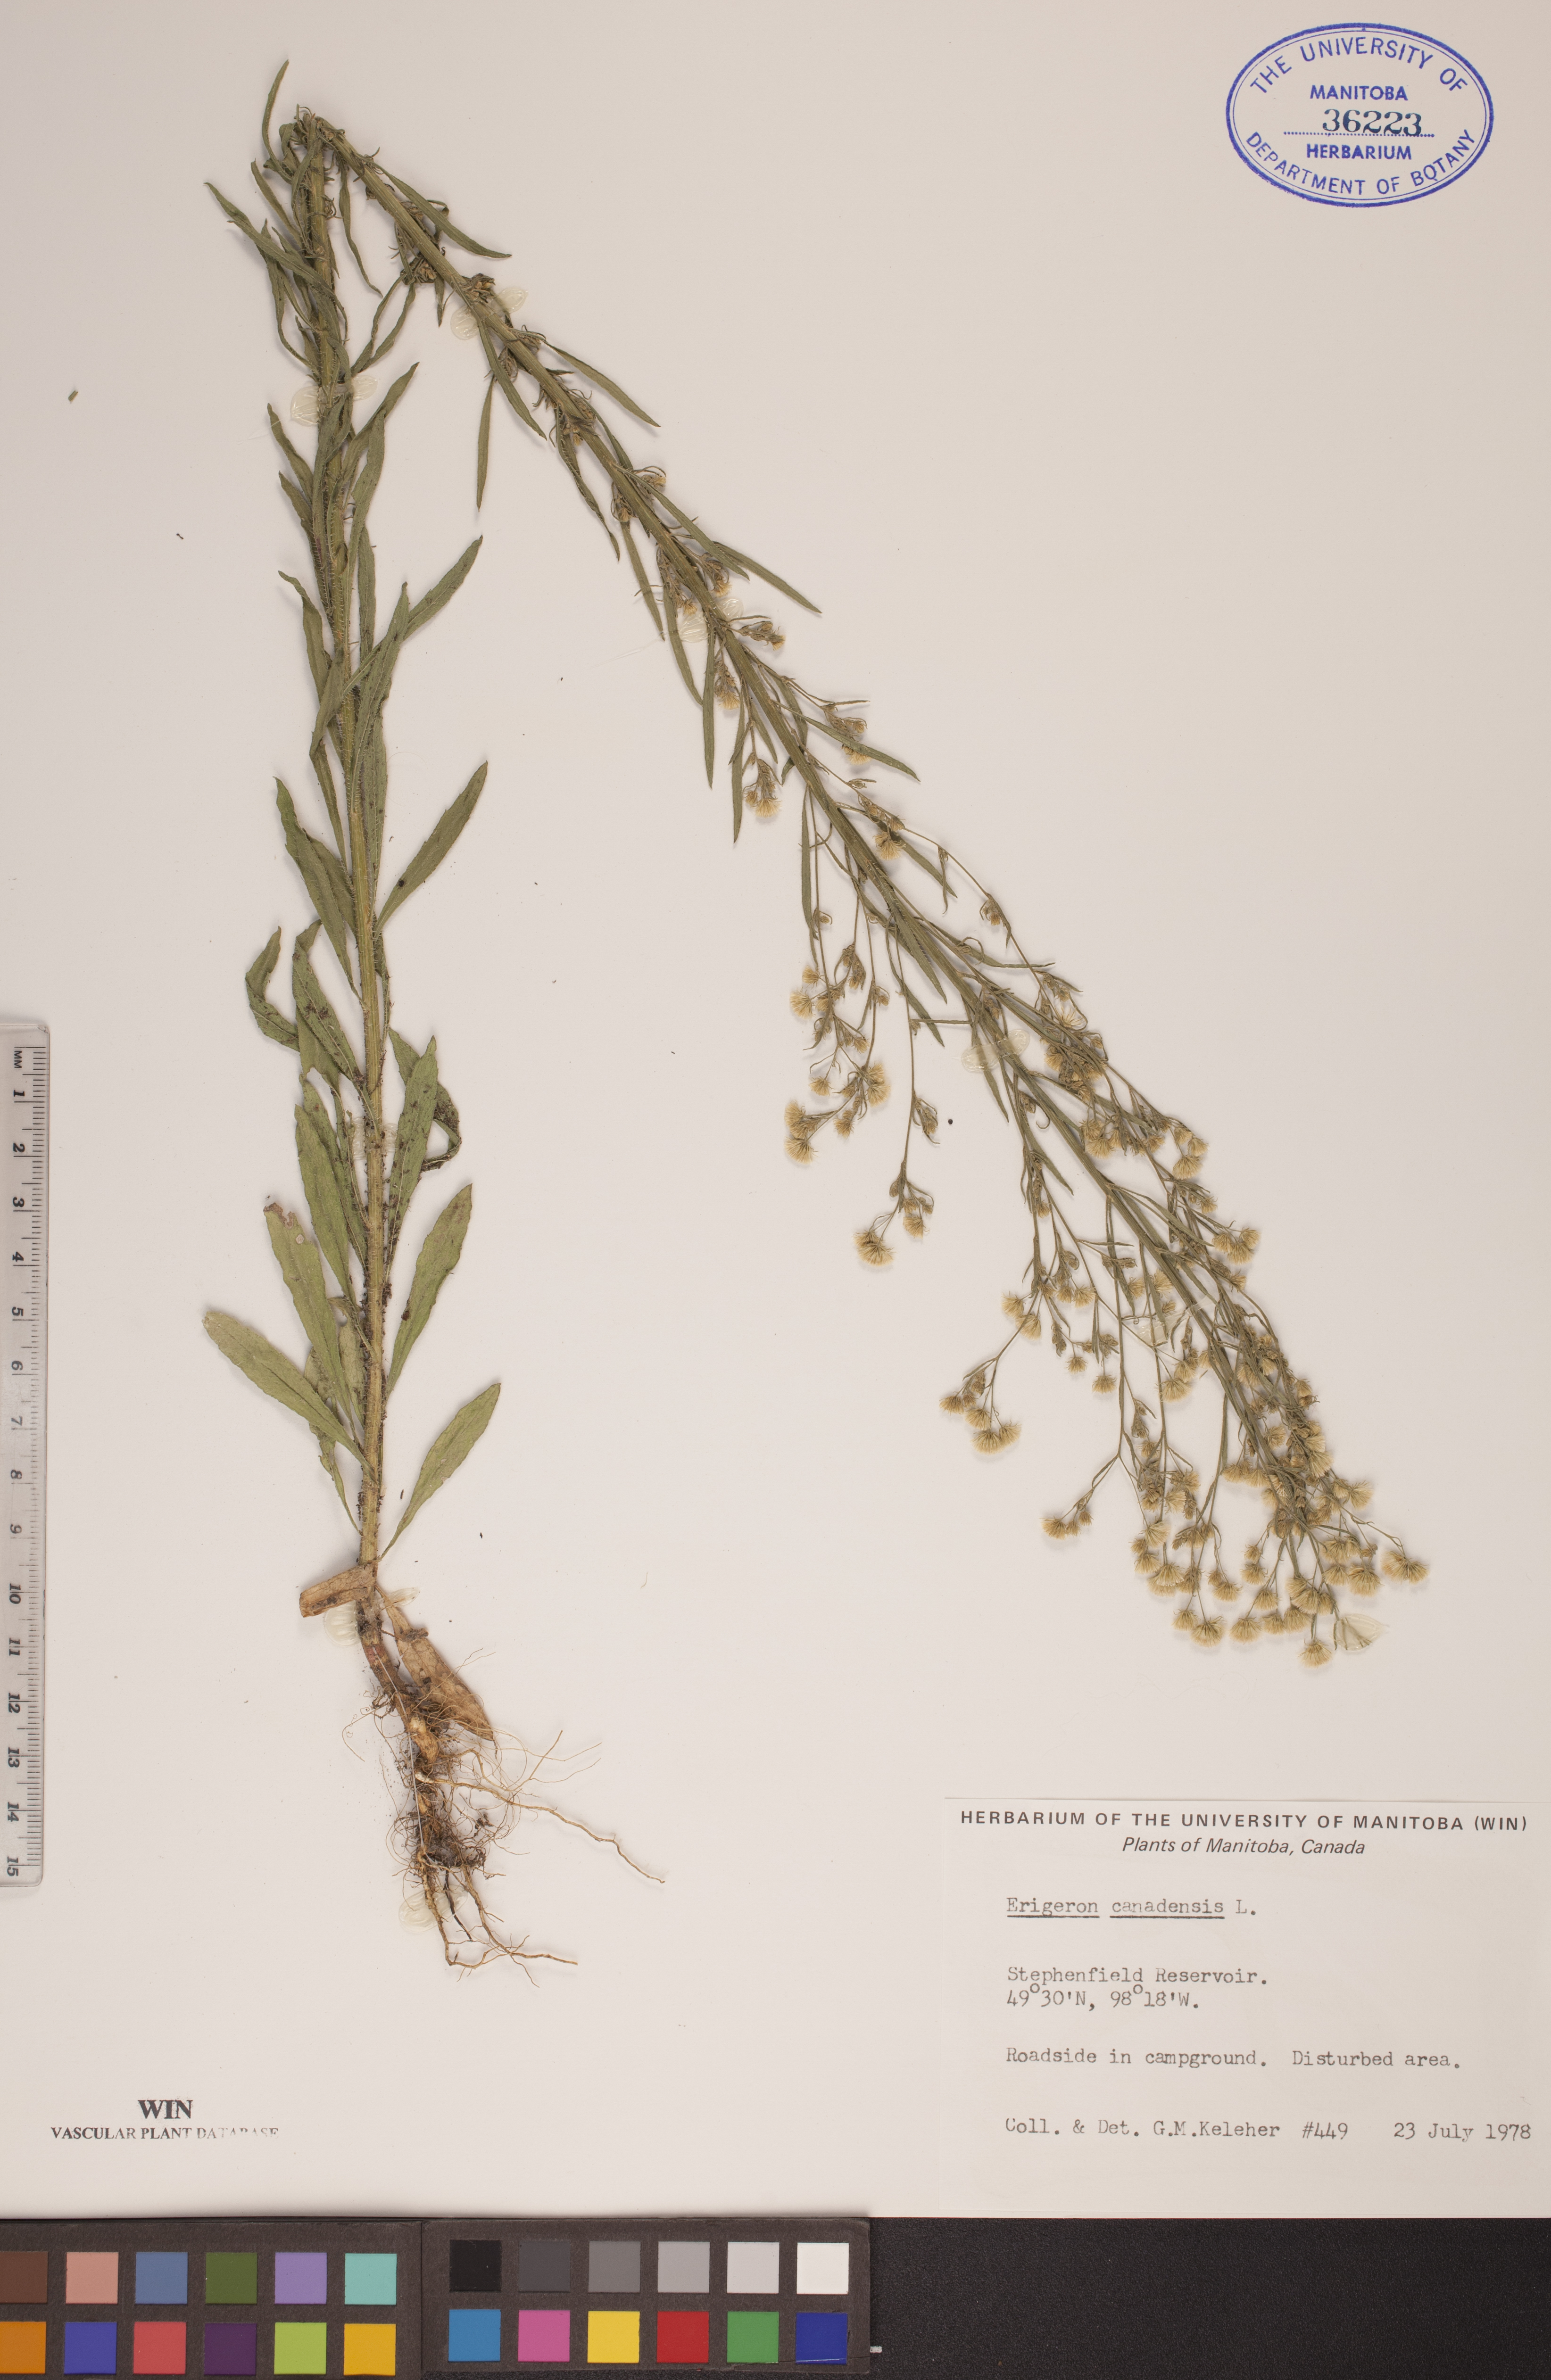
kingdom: Plantae
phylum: Tracheophyta
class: Magnoliopsida
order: Asterales
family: Asteraceae
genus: Erigeron
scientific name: Erigeron canadensis
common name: Canadian fleabane
